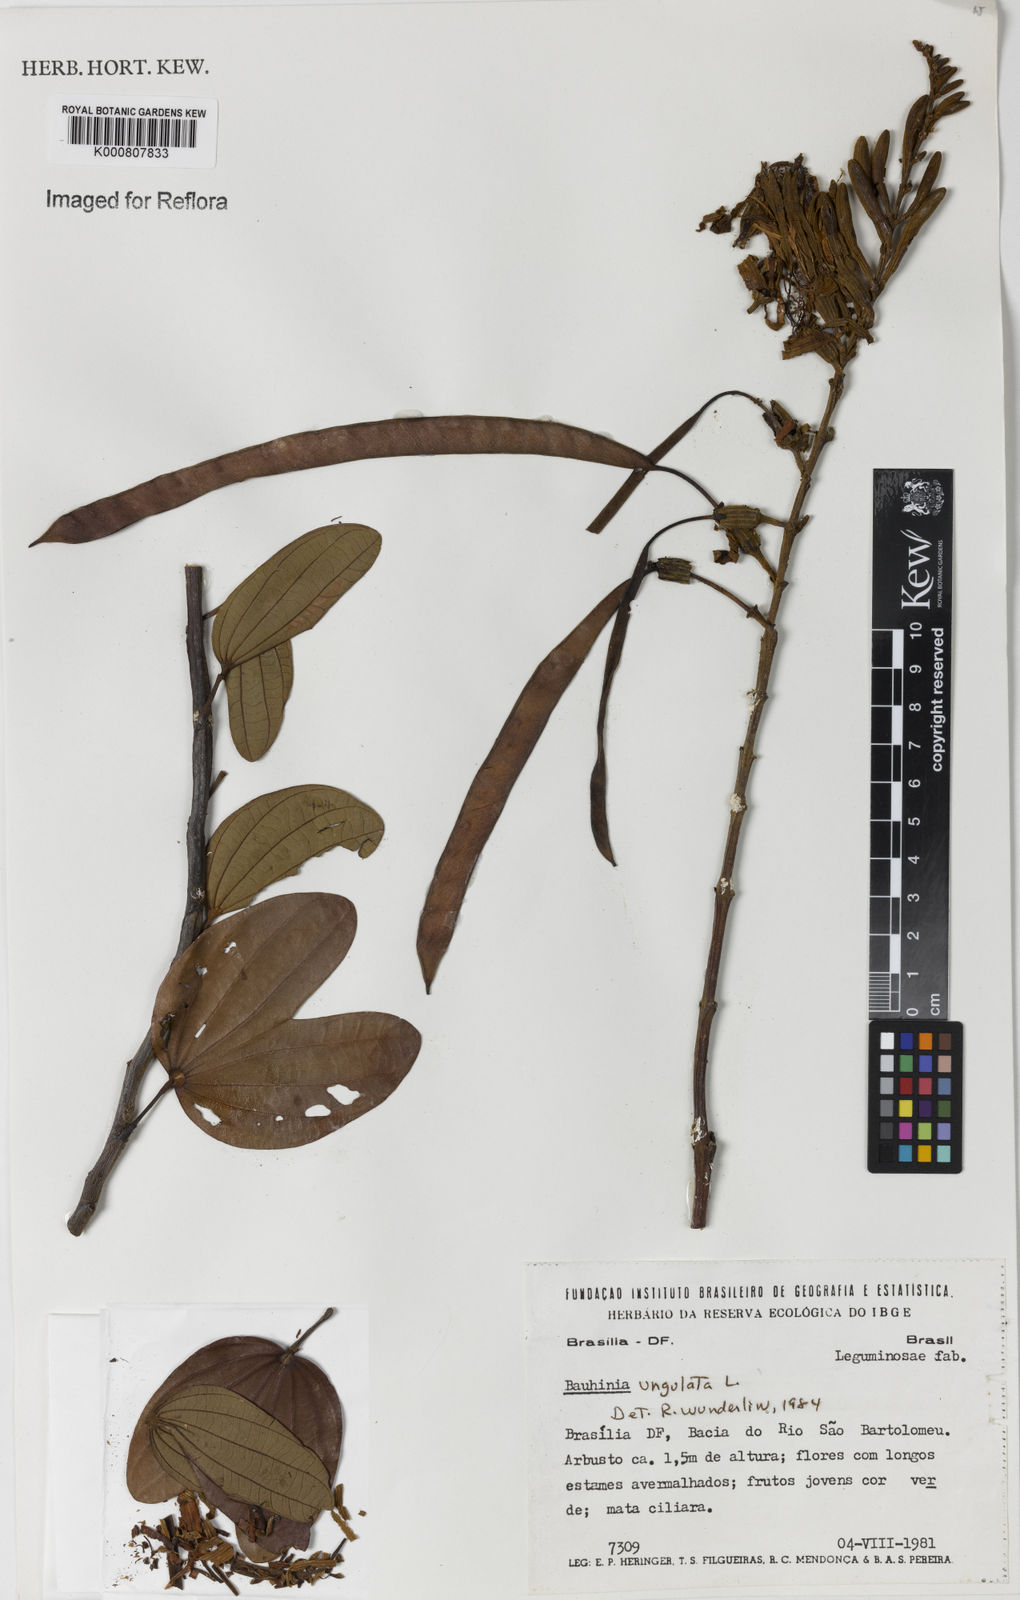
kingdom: Plantae
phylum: Tracheophyta
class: Magnoliopsida
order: Fabales
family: Fabaceae
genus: Bauhinia
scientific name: Bauhinia ungulata
